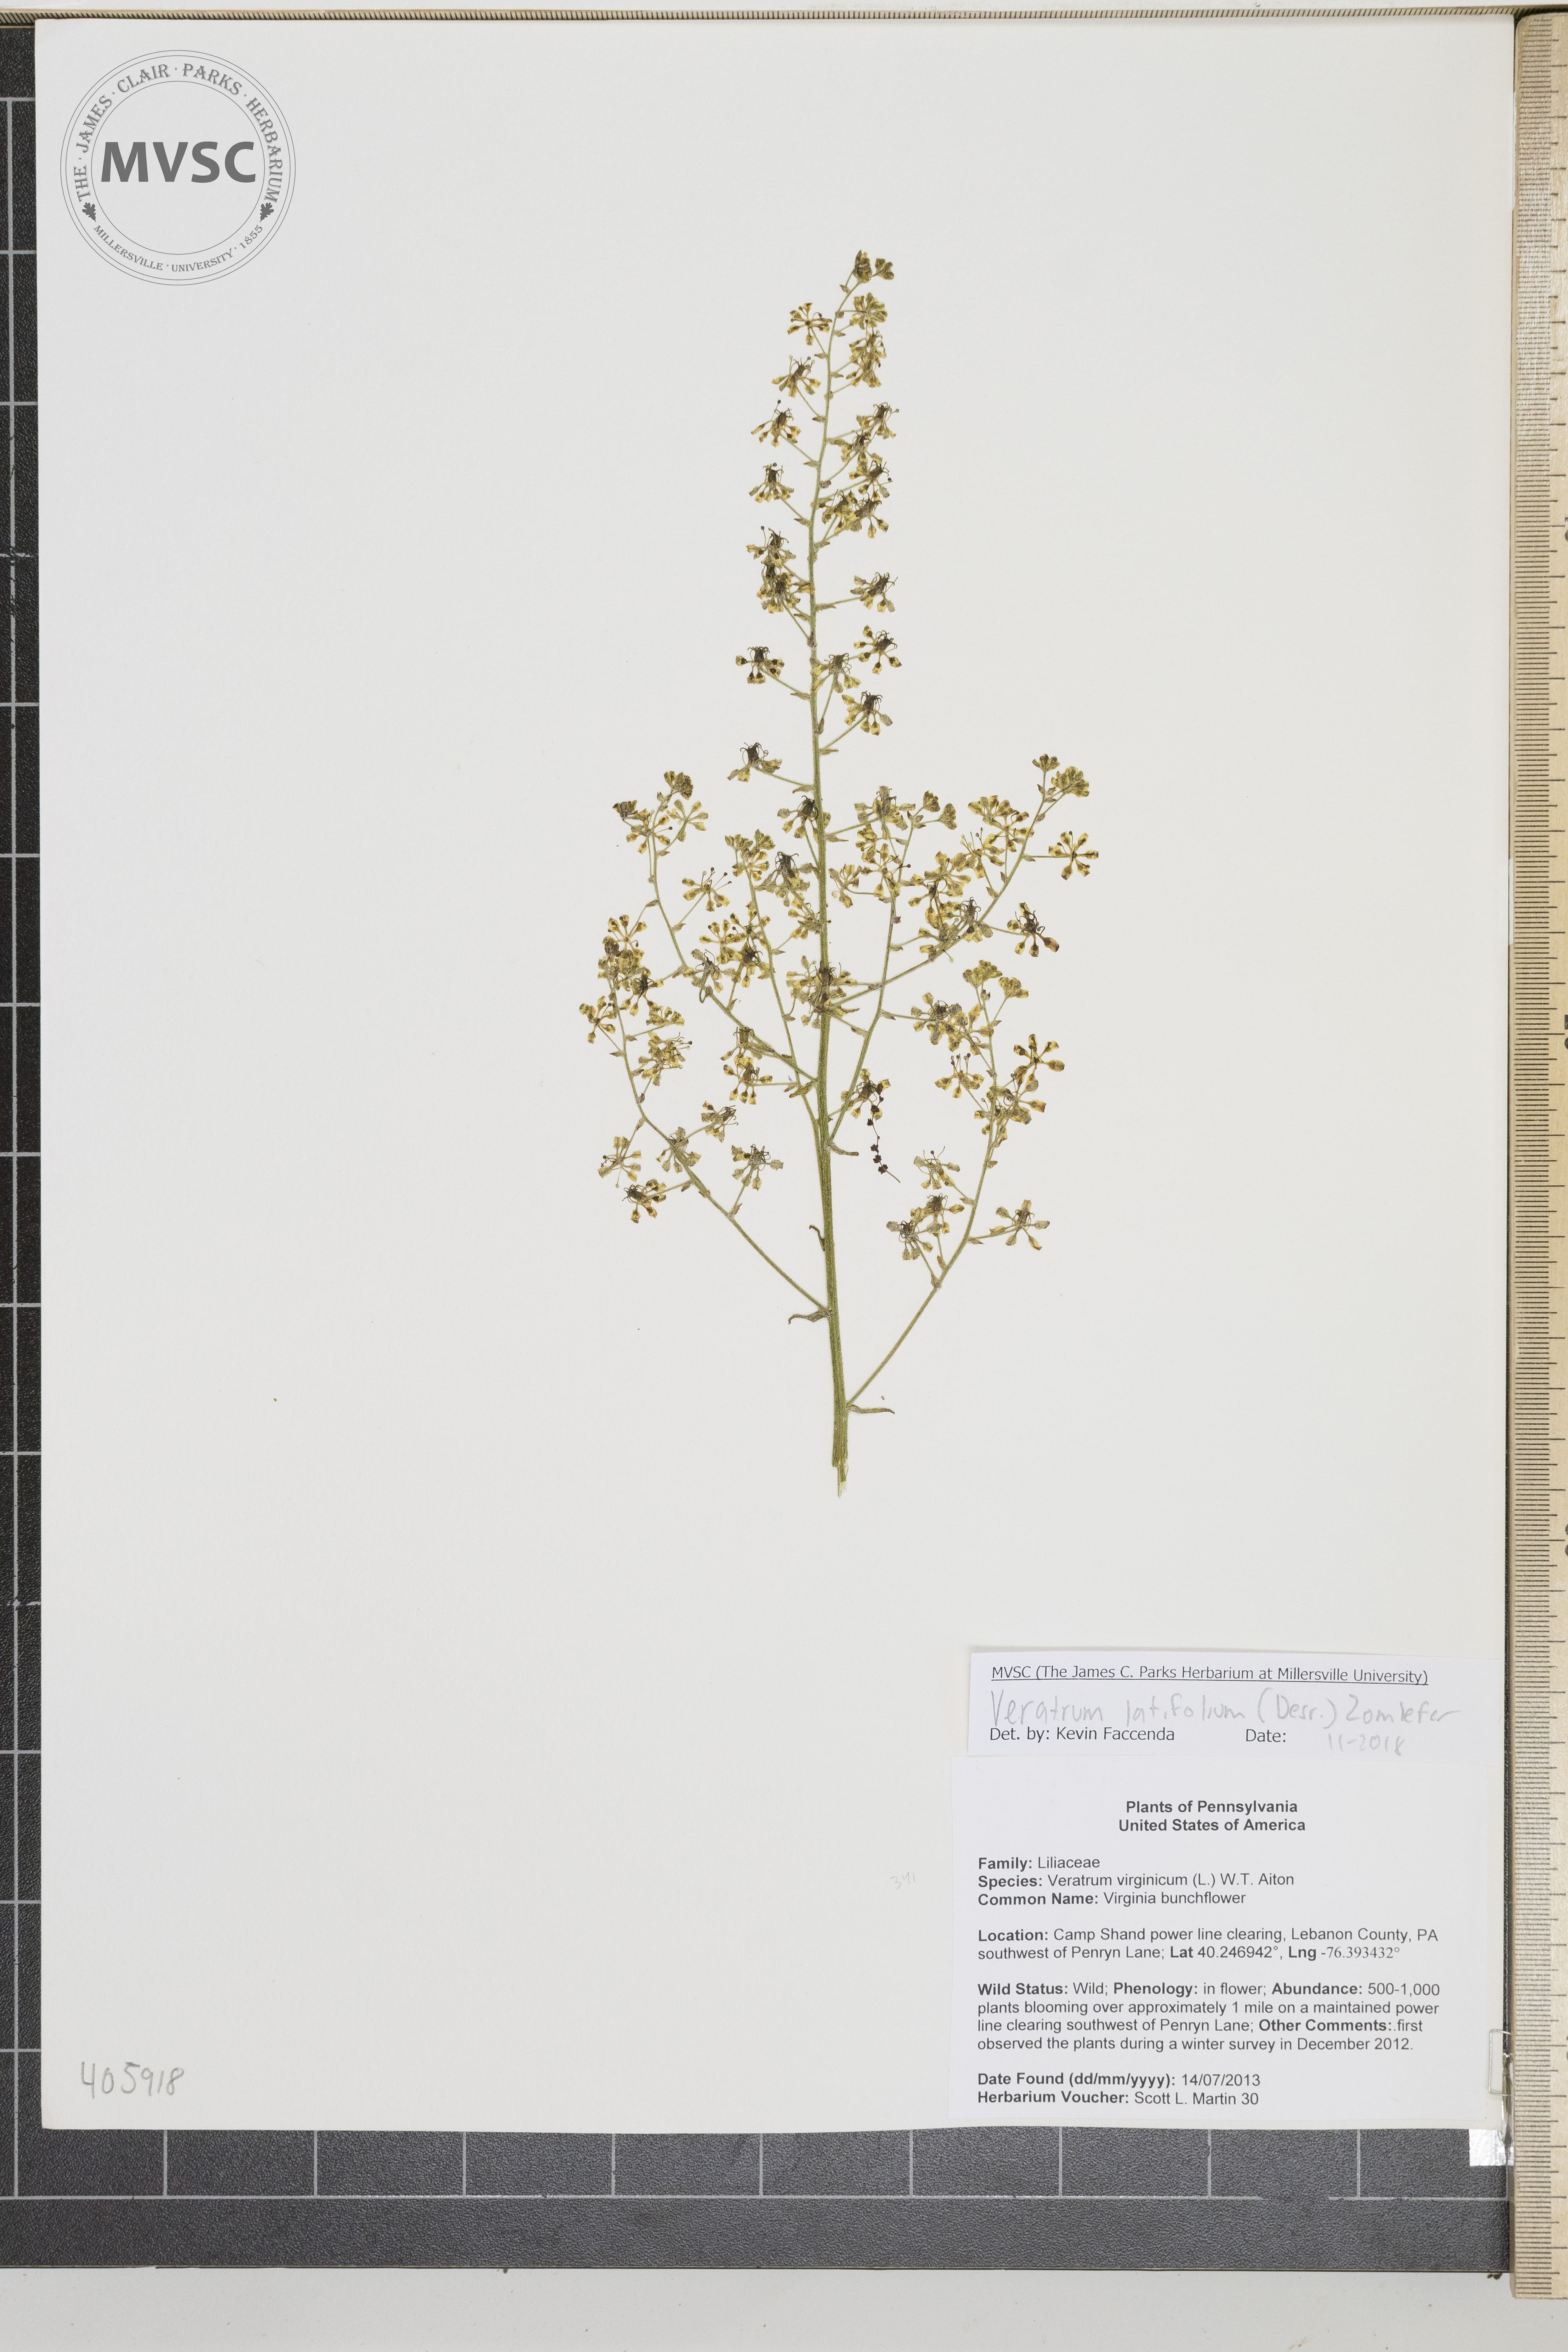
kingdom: Plantae
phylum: Tracheophyta
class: Liliopsida
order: Liliales
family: Melanthiaceae
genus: Melanthium
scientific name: Melanthium hybridum
